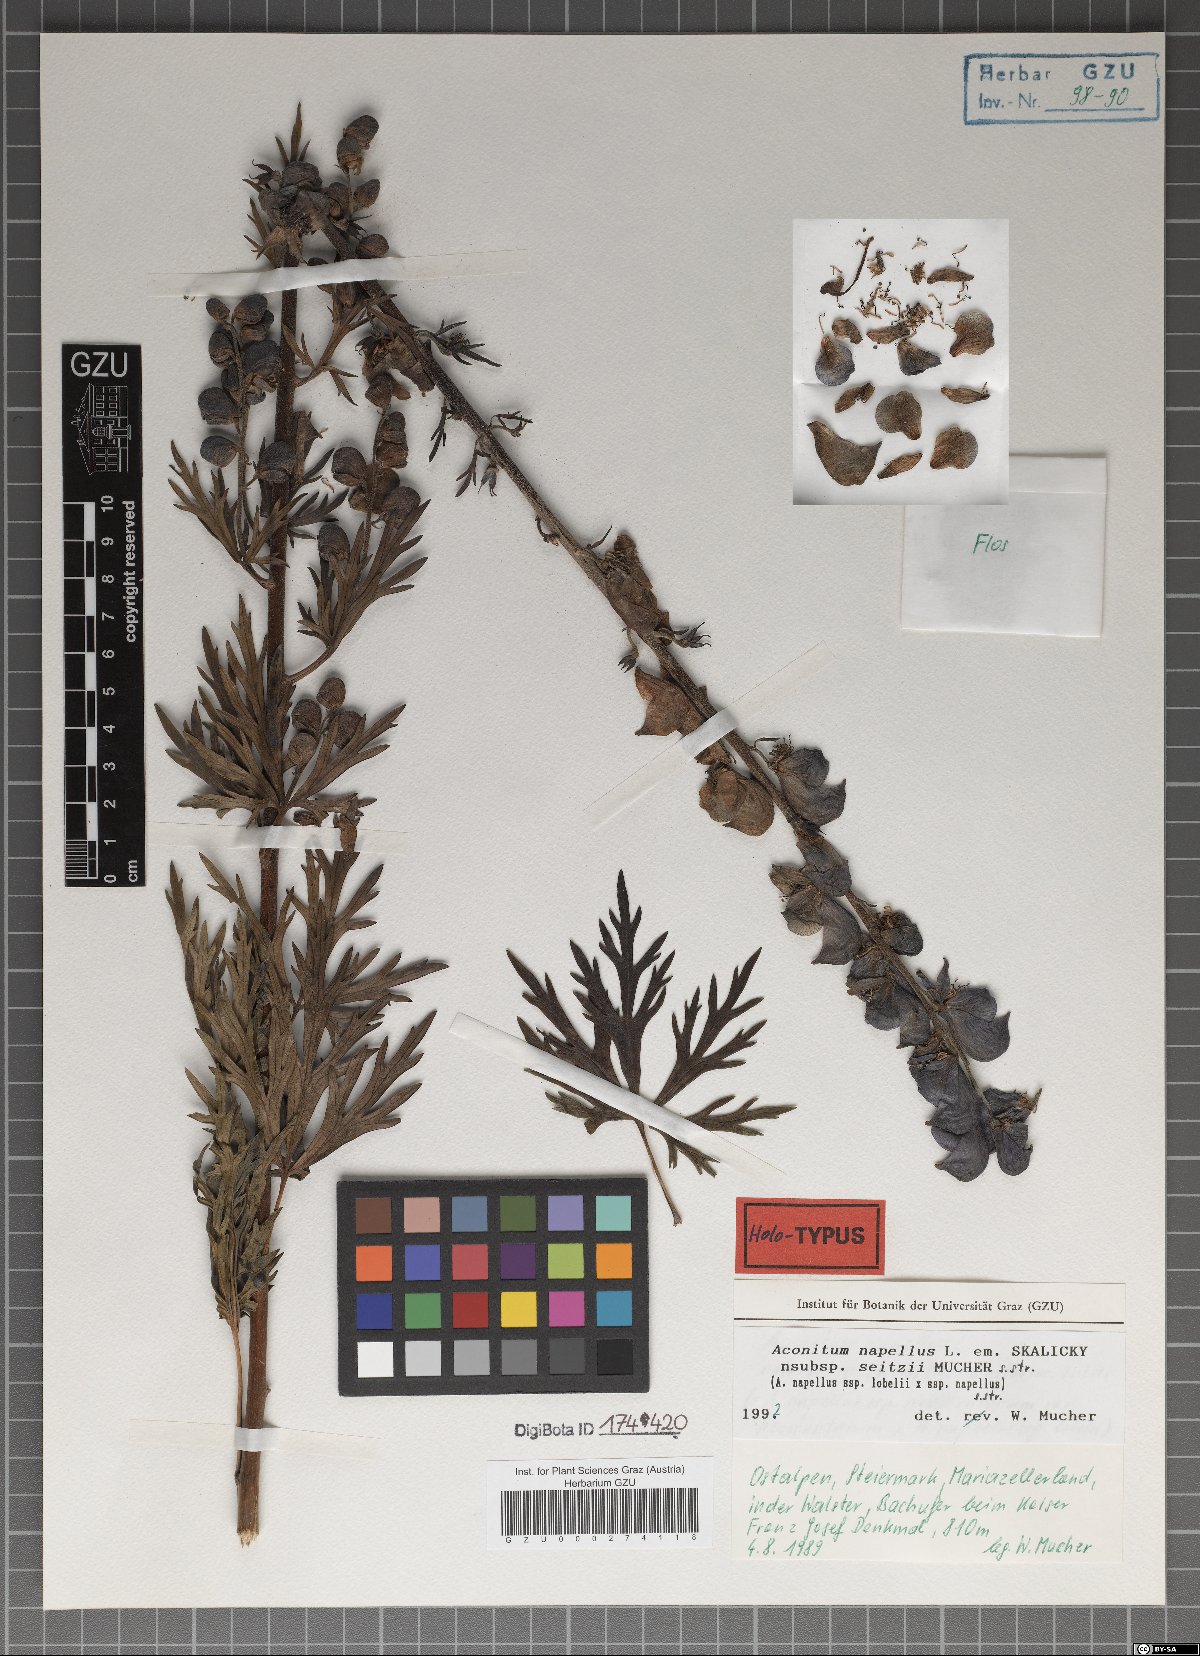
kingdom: Plantae
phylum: Tracheophyta
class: Magnoliopsida
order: Ranunculales
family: Ranunculaceae
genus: Aconitum
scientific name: Aconitum napellus
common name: Garden monkshood
